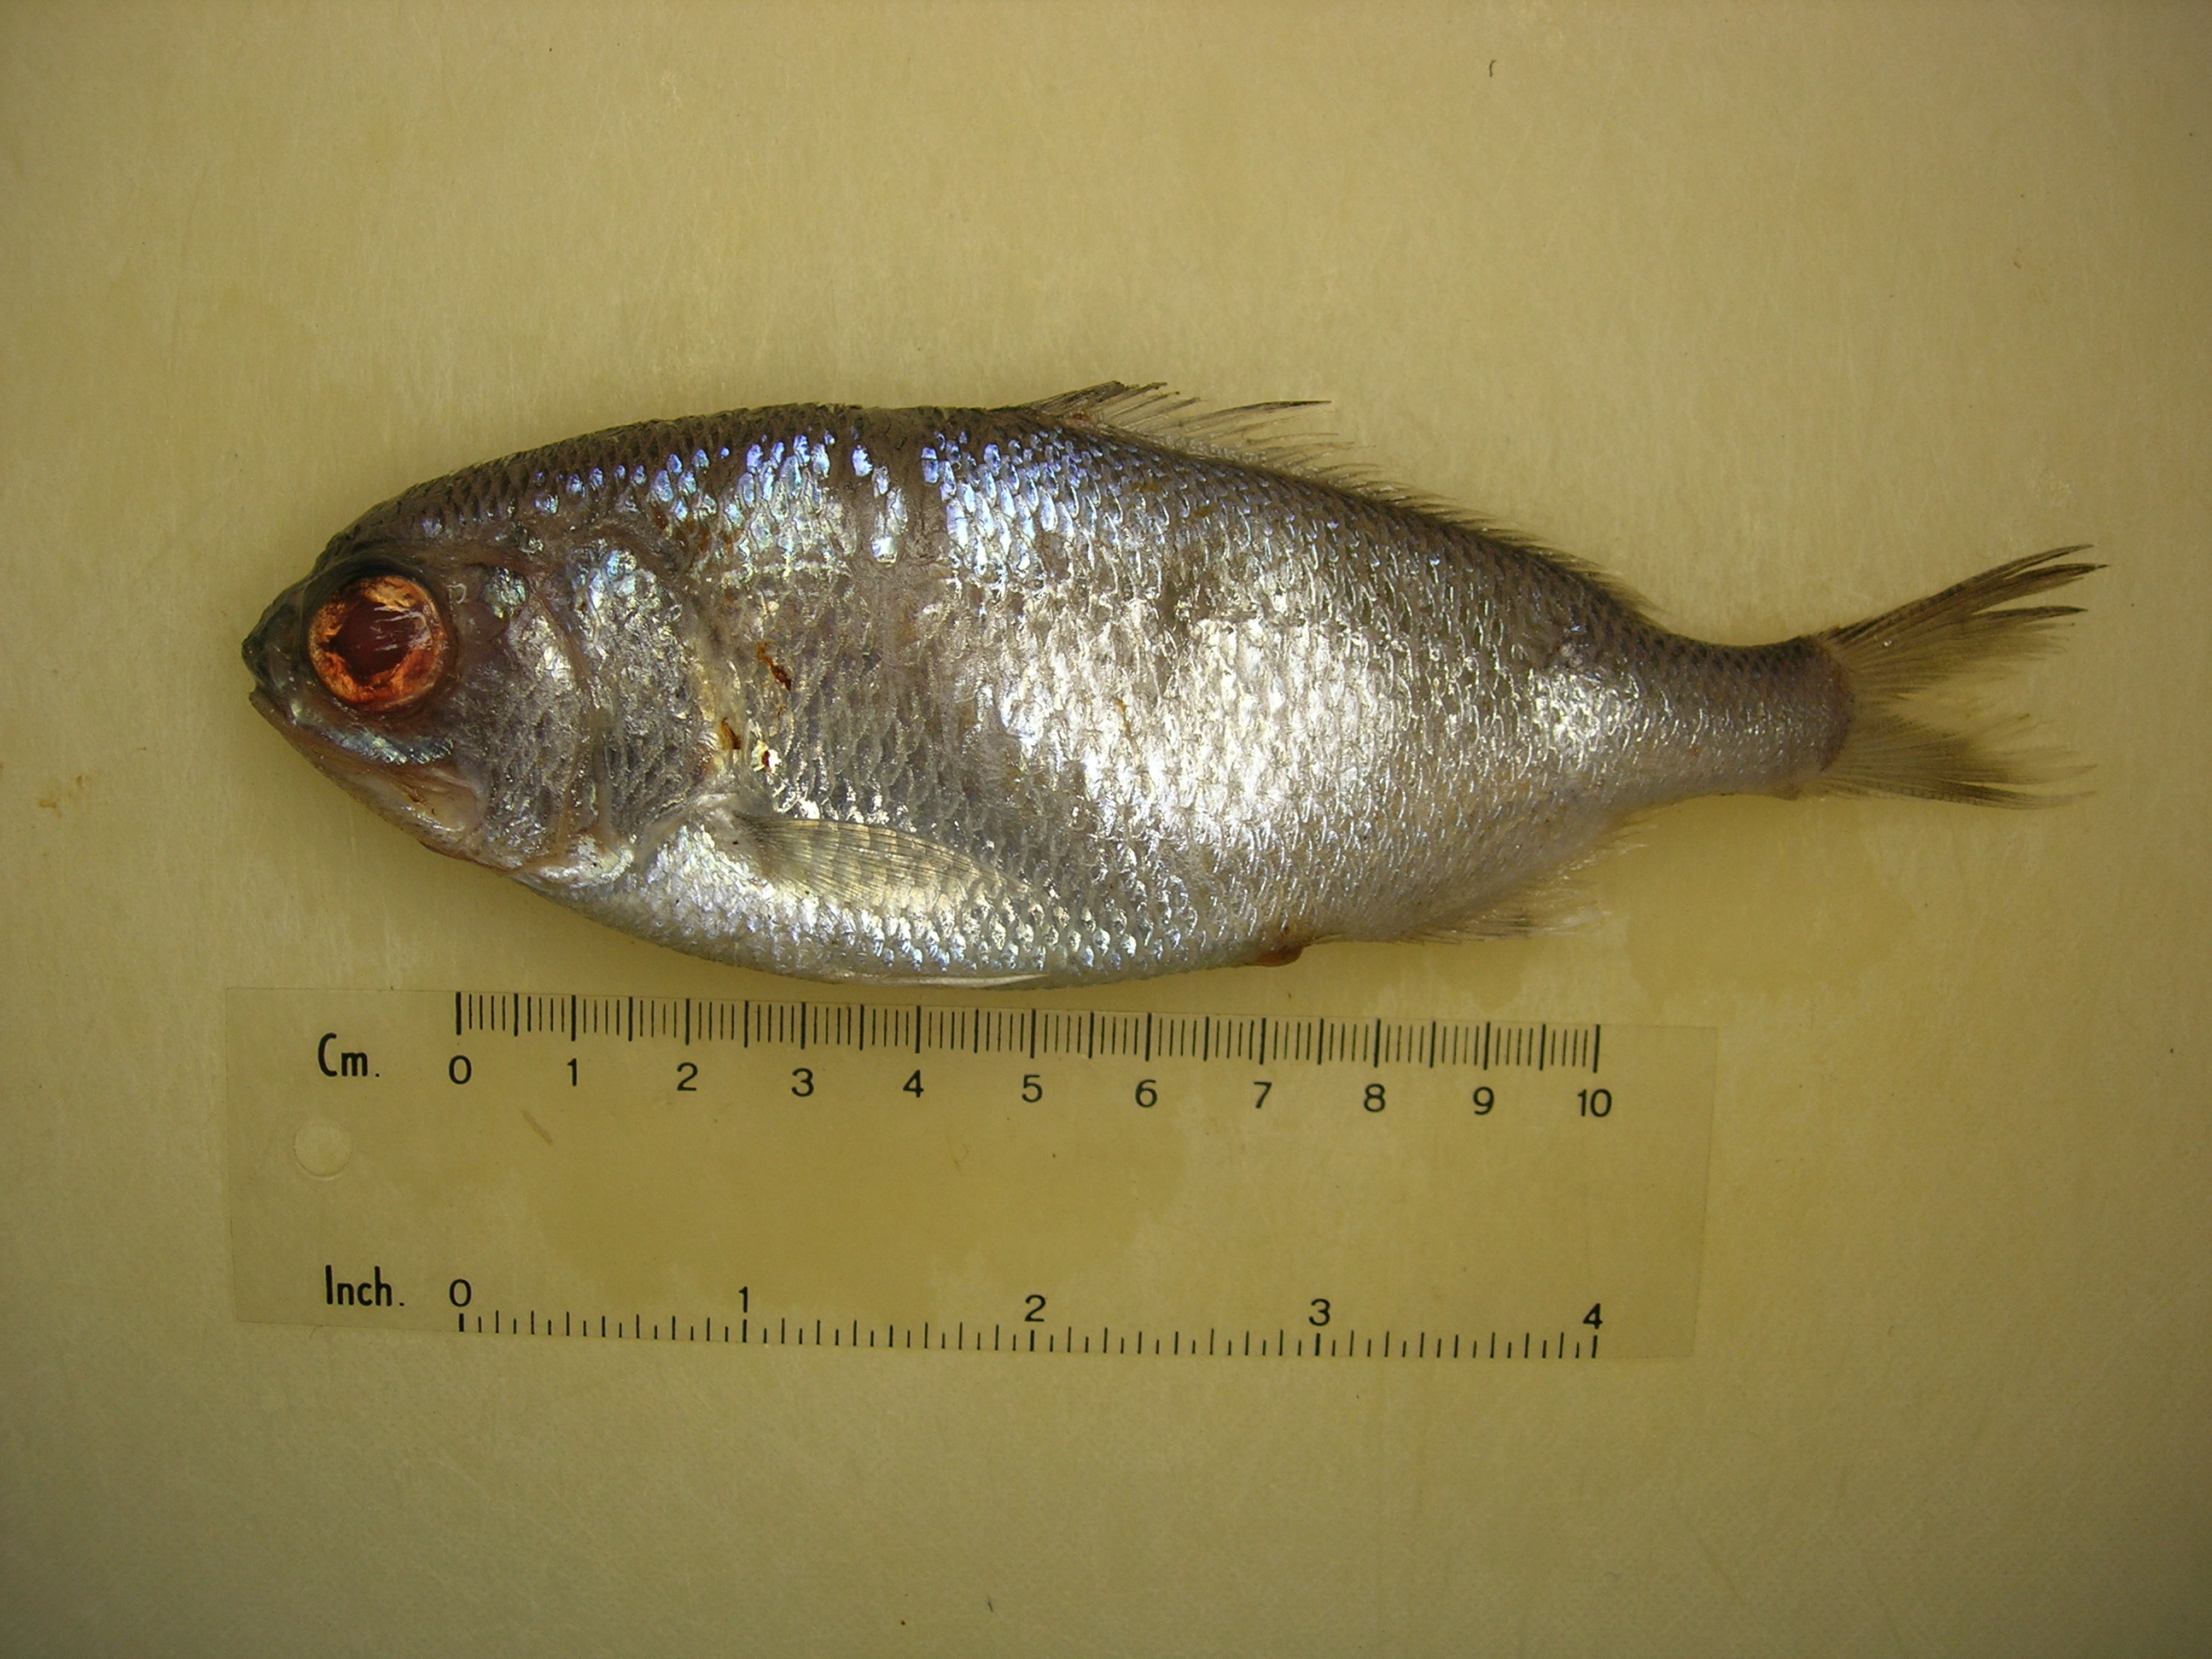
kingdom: Animalia
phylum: Chordata
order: Polymixiiformes
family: Polymixiidae
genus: Polymixia
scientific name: Polymixia berndti
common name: Berndt’s beardfish
